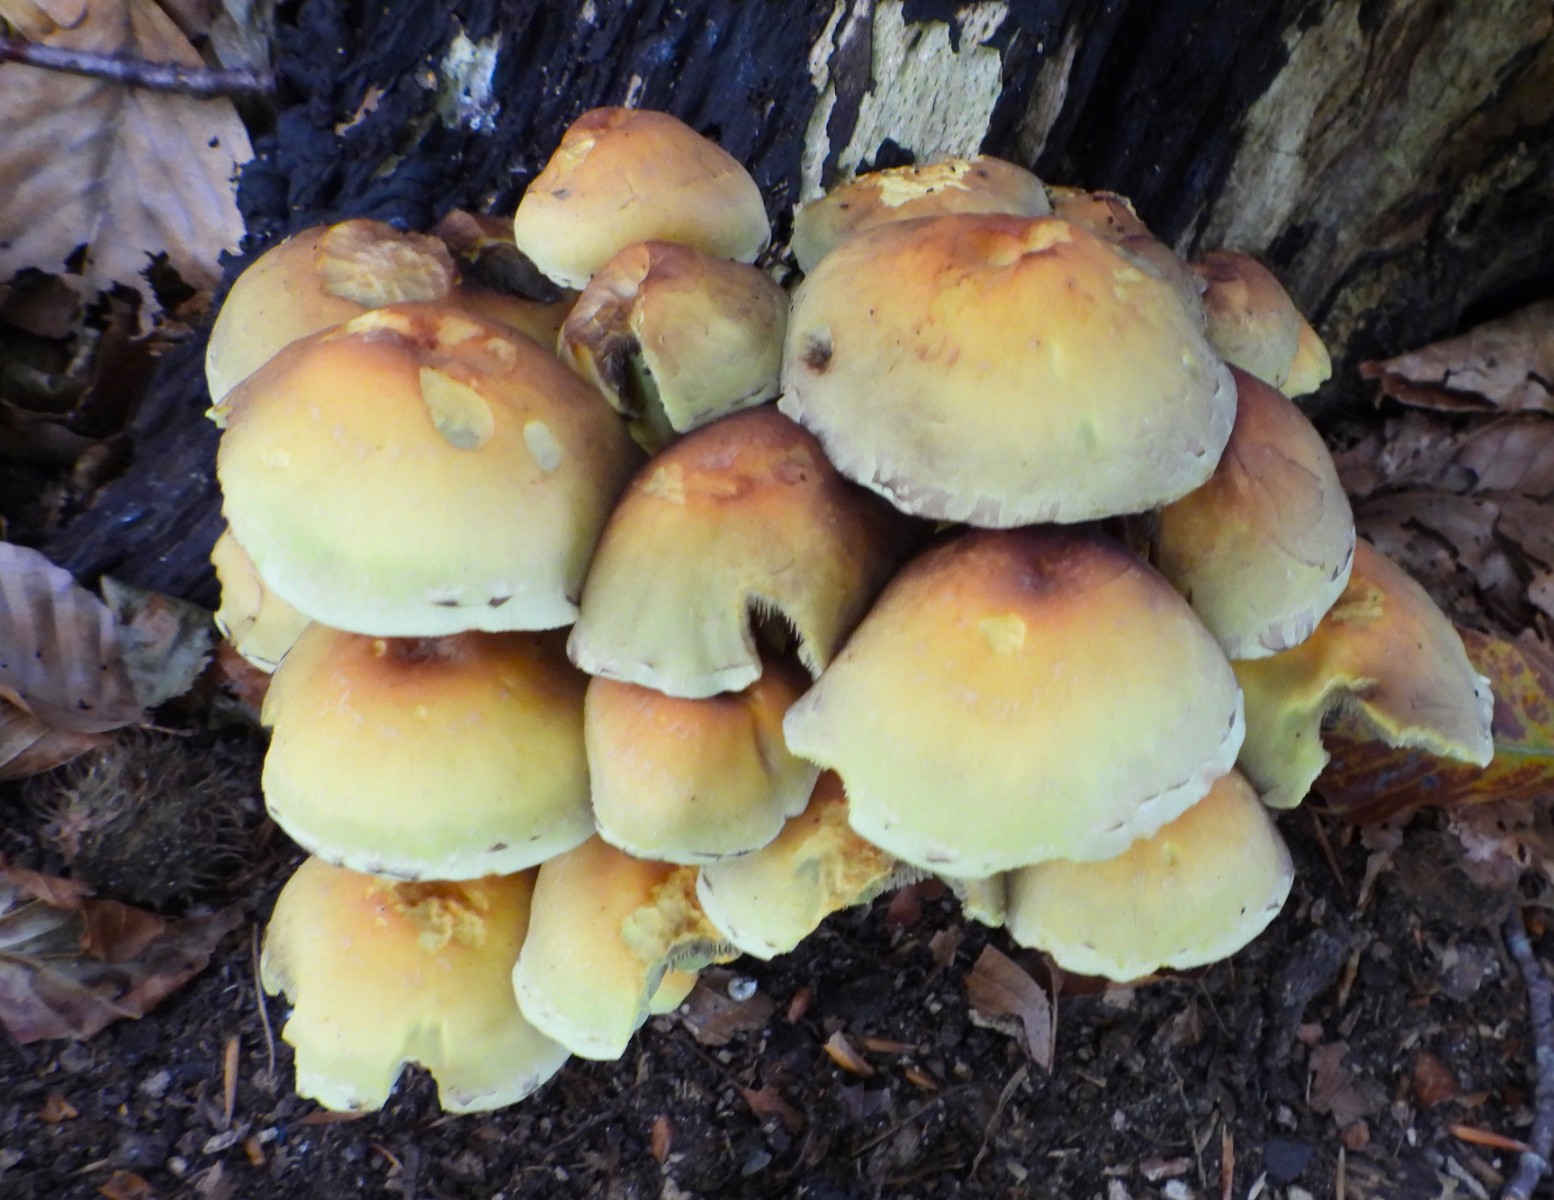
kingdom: Fungi
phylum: Basidiomycota
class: Agaricomycetes
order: Agaricales
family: Strophariaceae
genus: Hypholoma
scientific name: Hypholoma fasciculare
